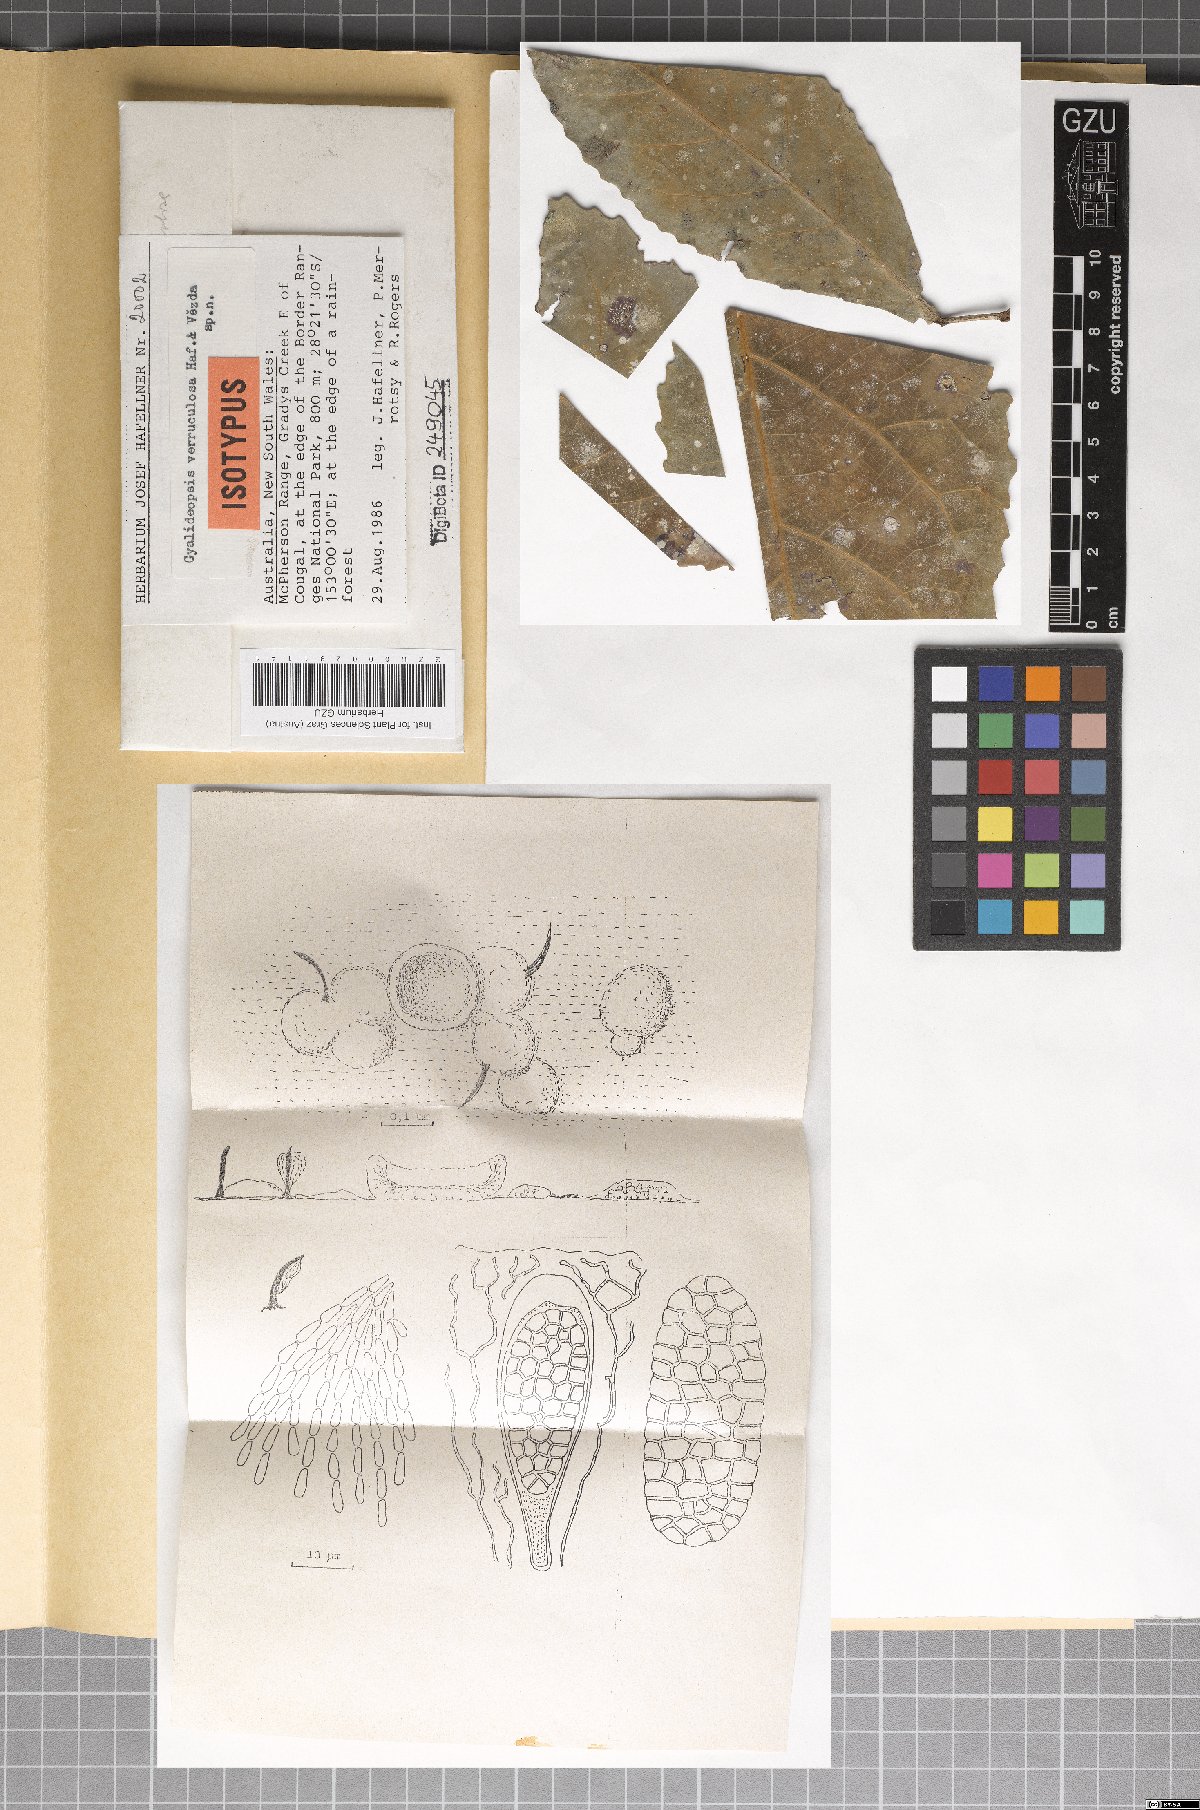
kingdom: Fungi
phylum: Ascomycota
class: Lecanoromycetes
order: Ostropales
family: Gomphillaceae
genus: Gyalideopsis
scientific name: Gyalideopsis verruculosa
